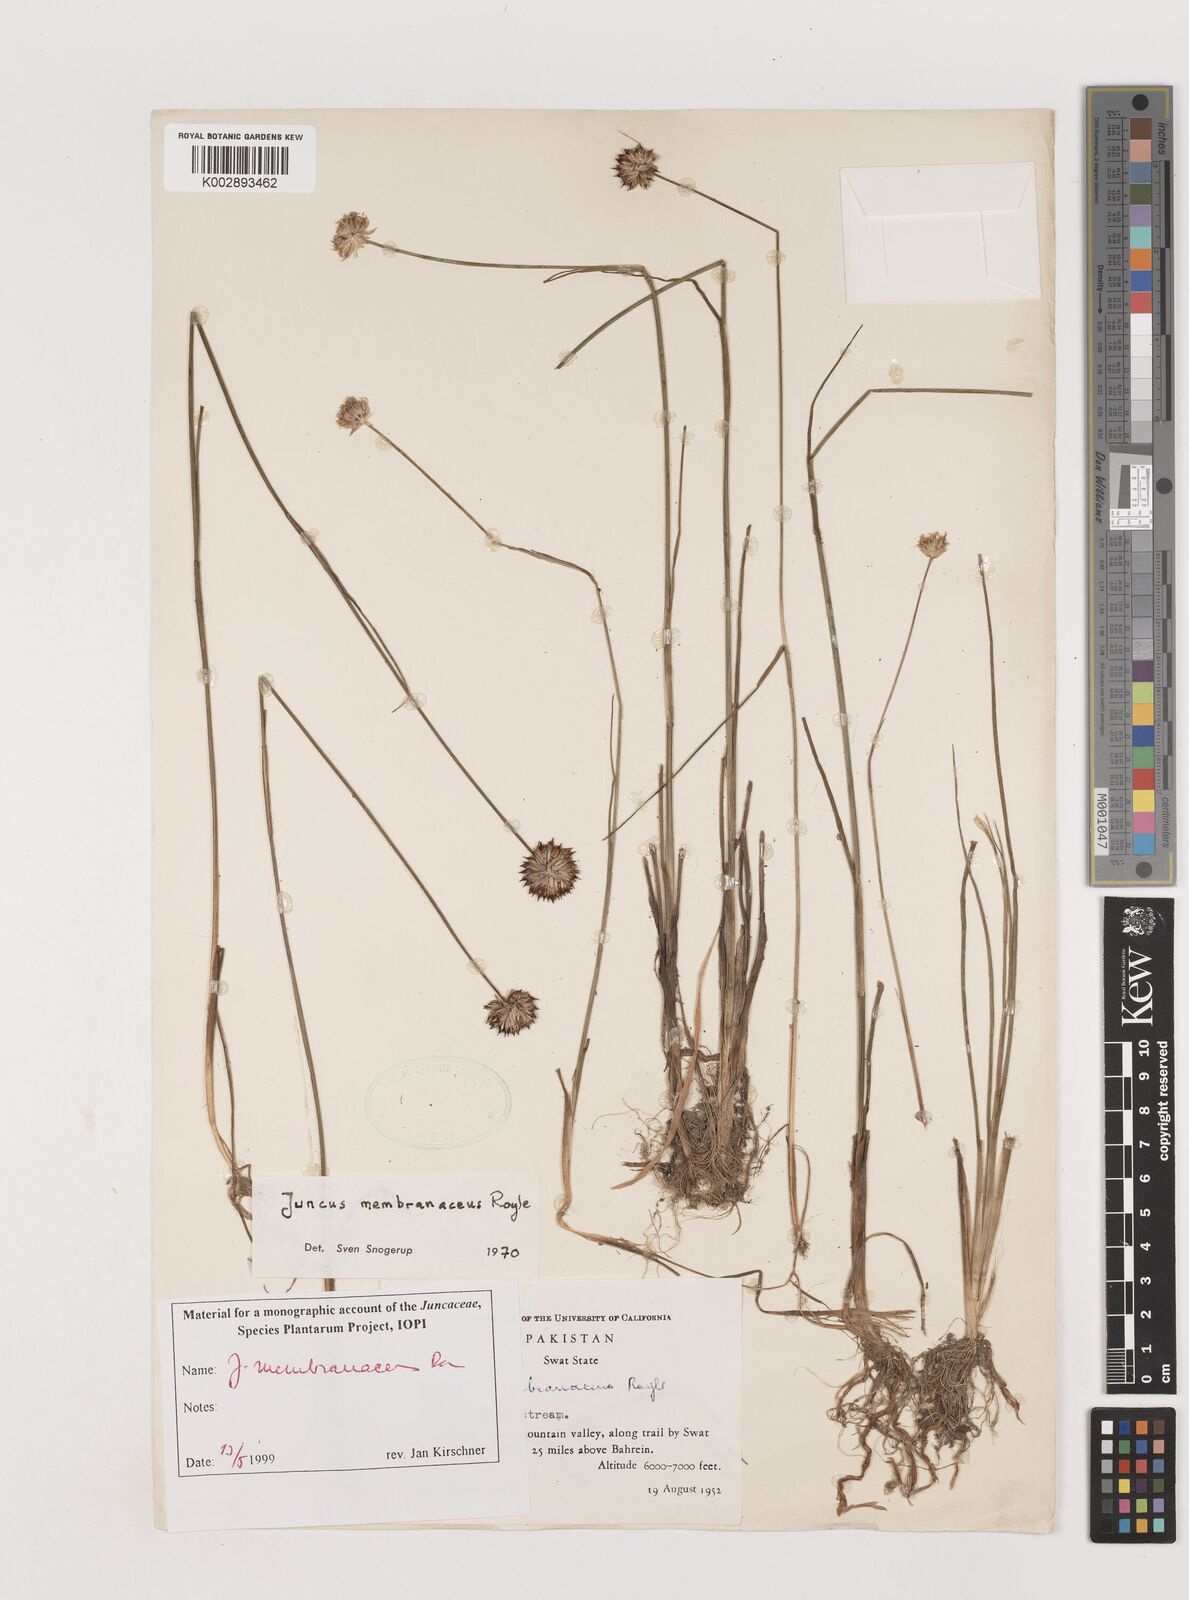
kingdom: Plantae
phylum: Tracheophyta
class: Liliopsida
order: Poales
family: Juncaceae
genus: Juncus
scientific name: Juncus membranaceus
